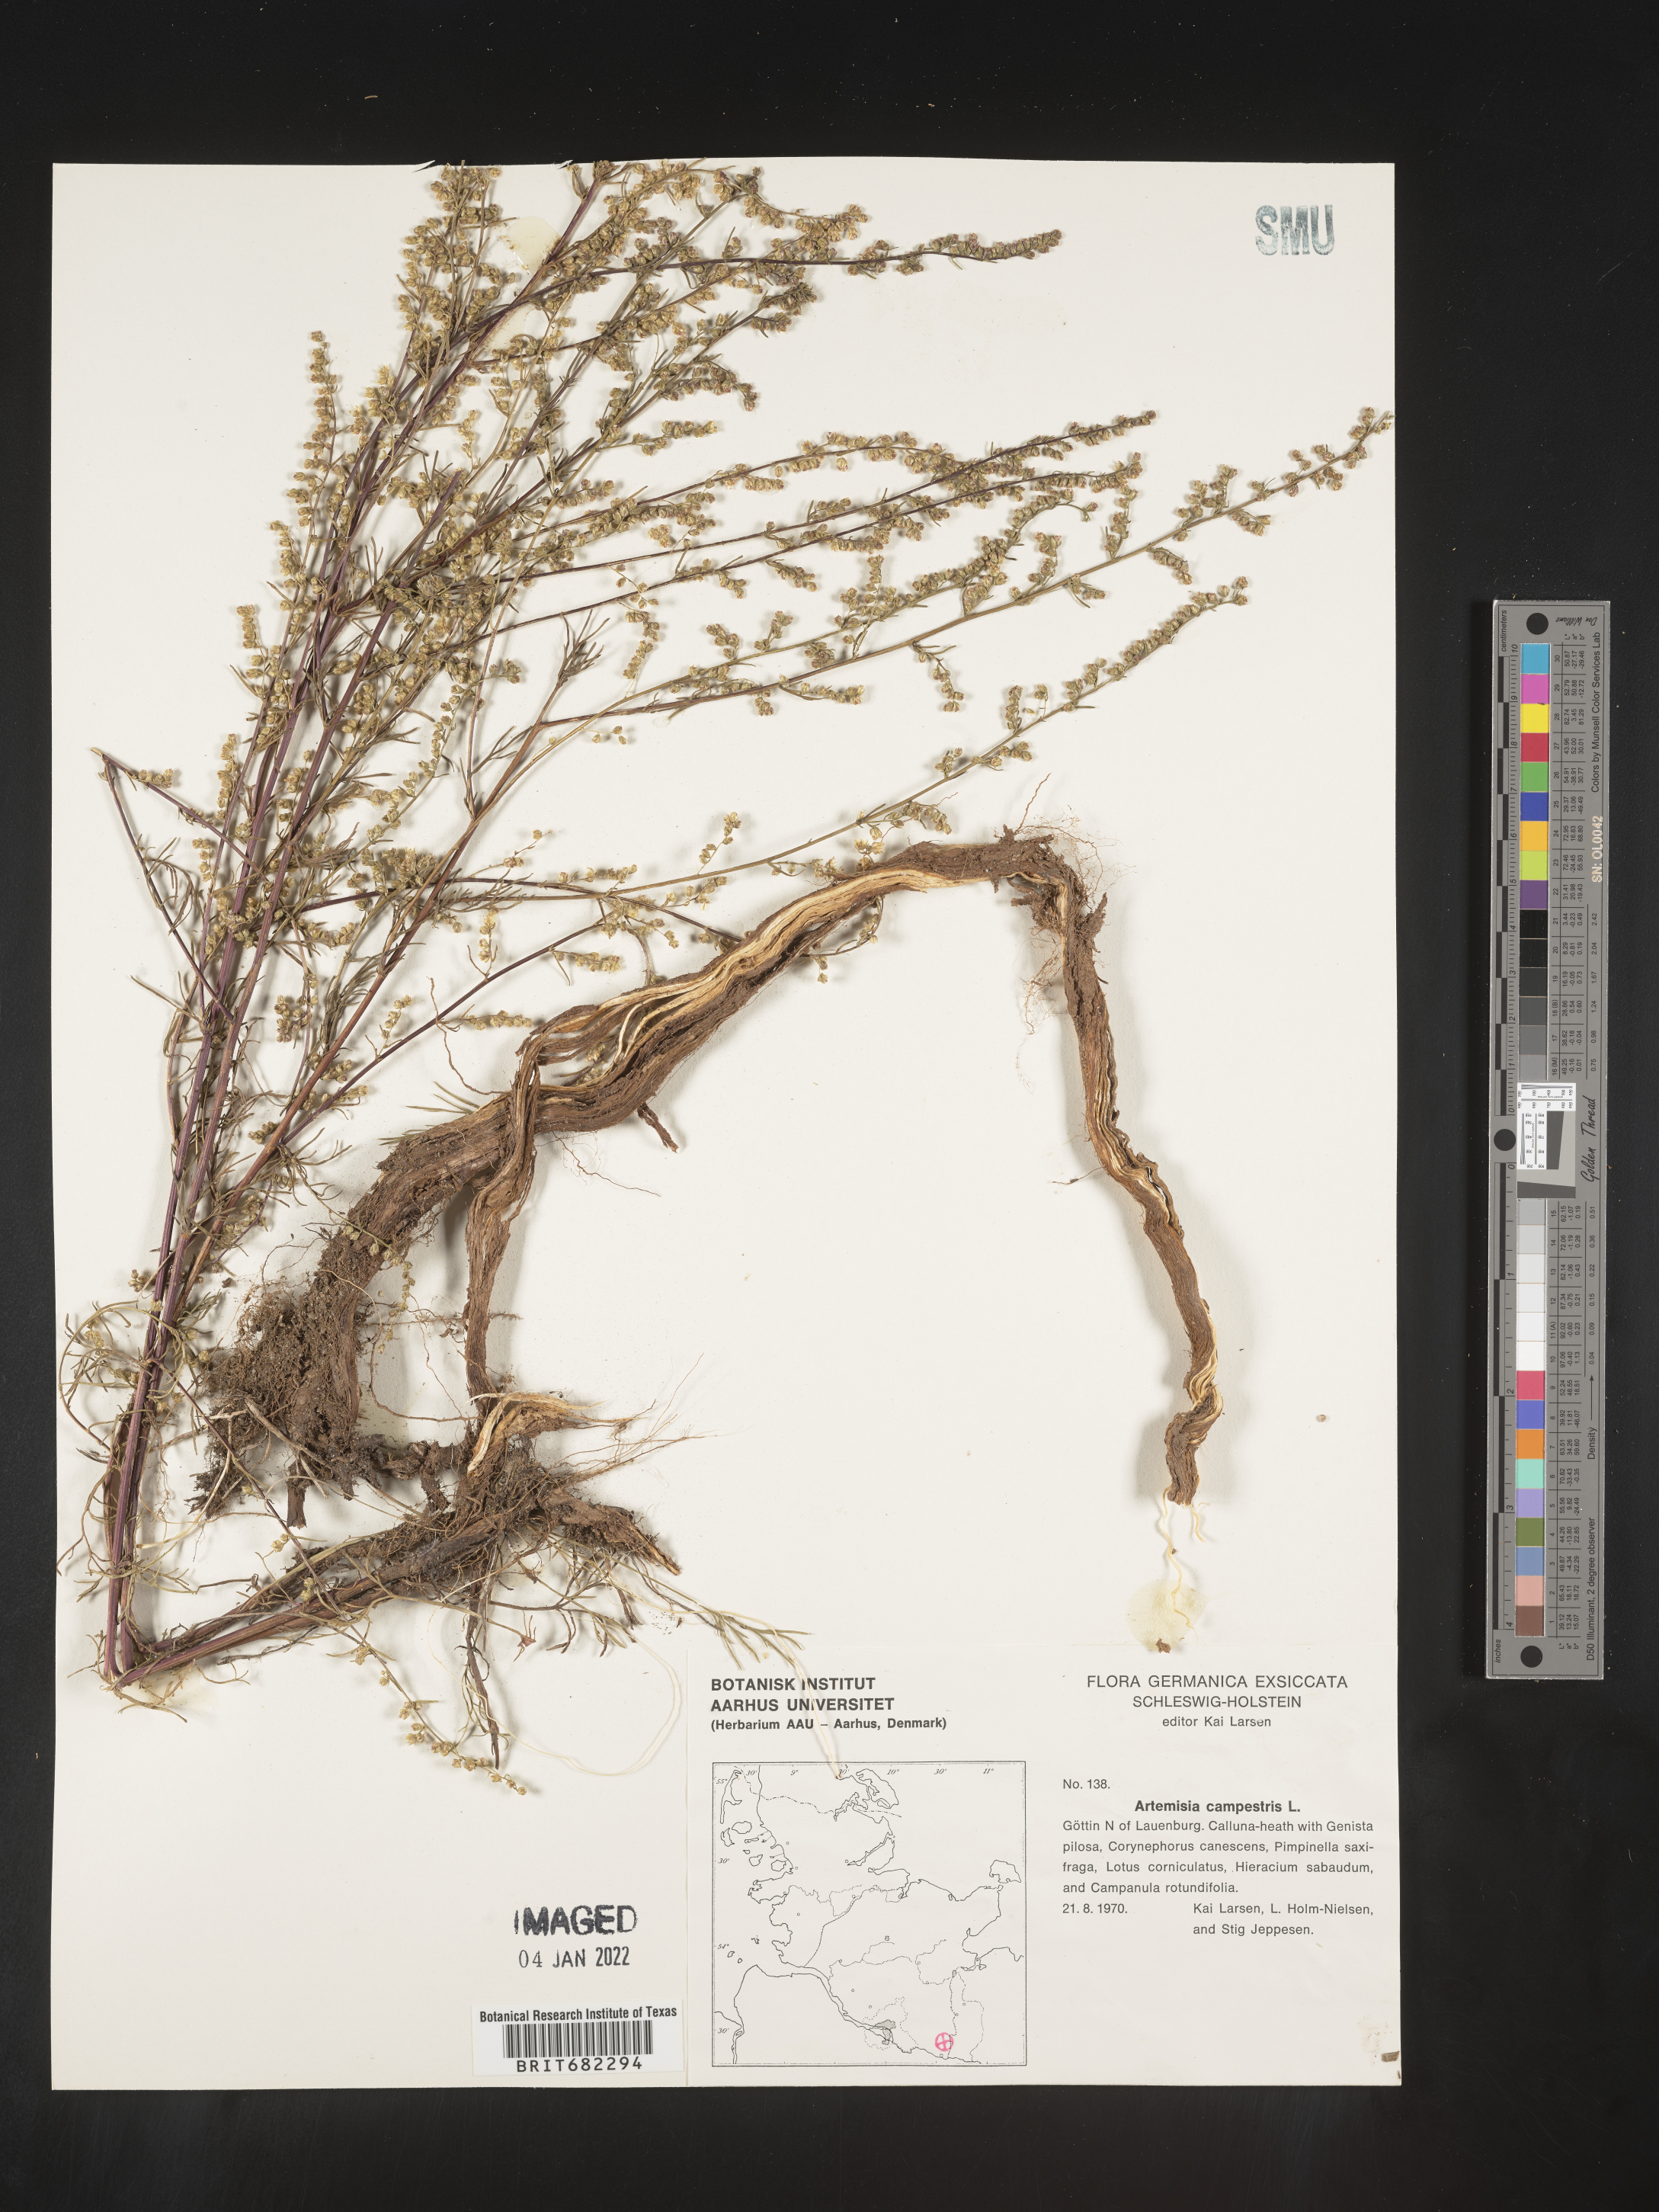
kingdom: Plantae
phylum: Tracheophyta
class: Magnoliopsida
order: Asterales
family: Asteraceae
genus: Artemisia
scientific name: Artemisia campestris
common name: Field wormwood
